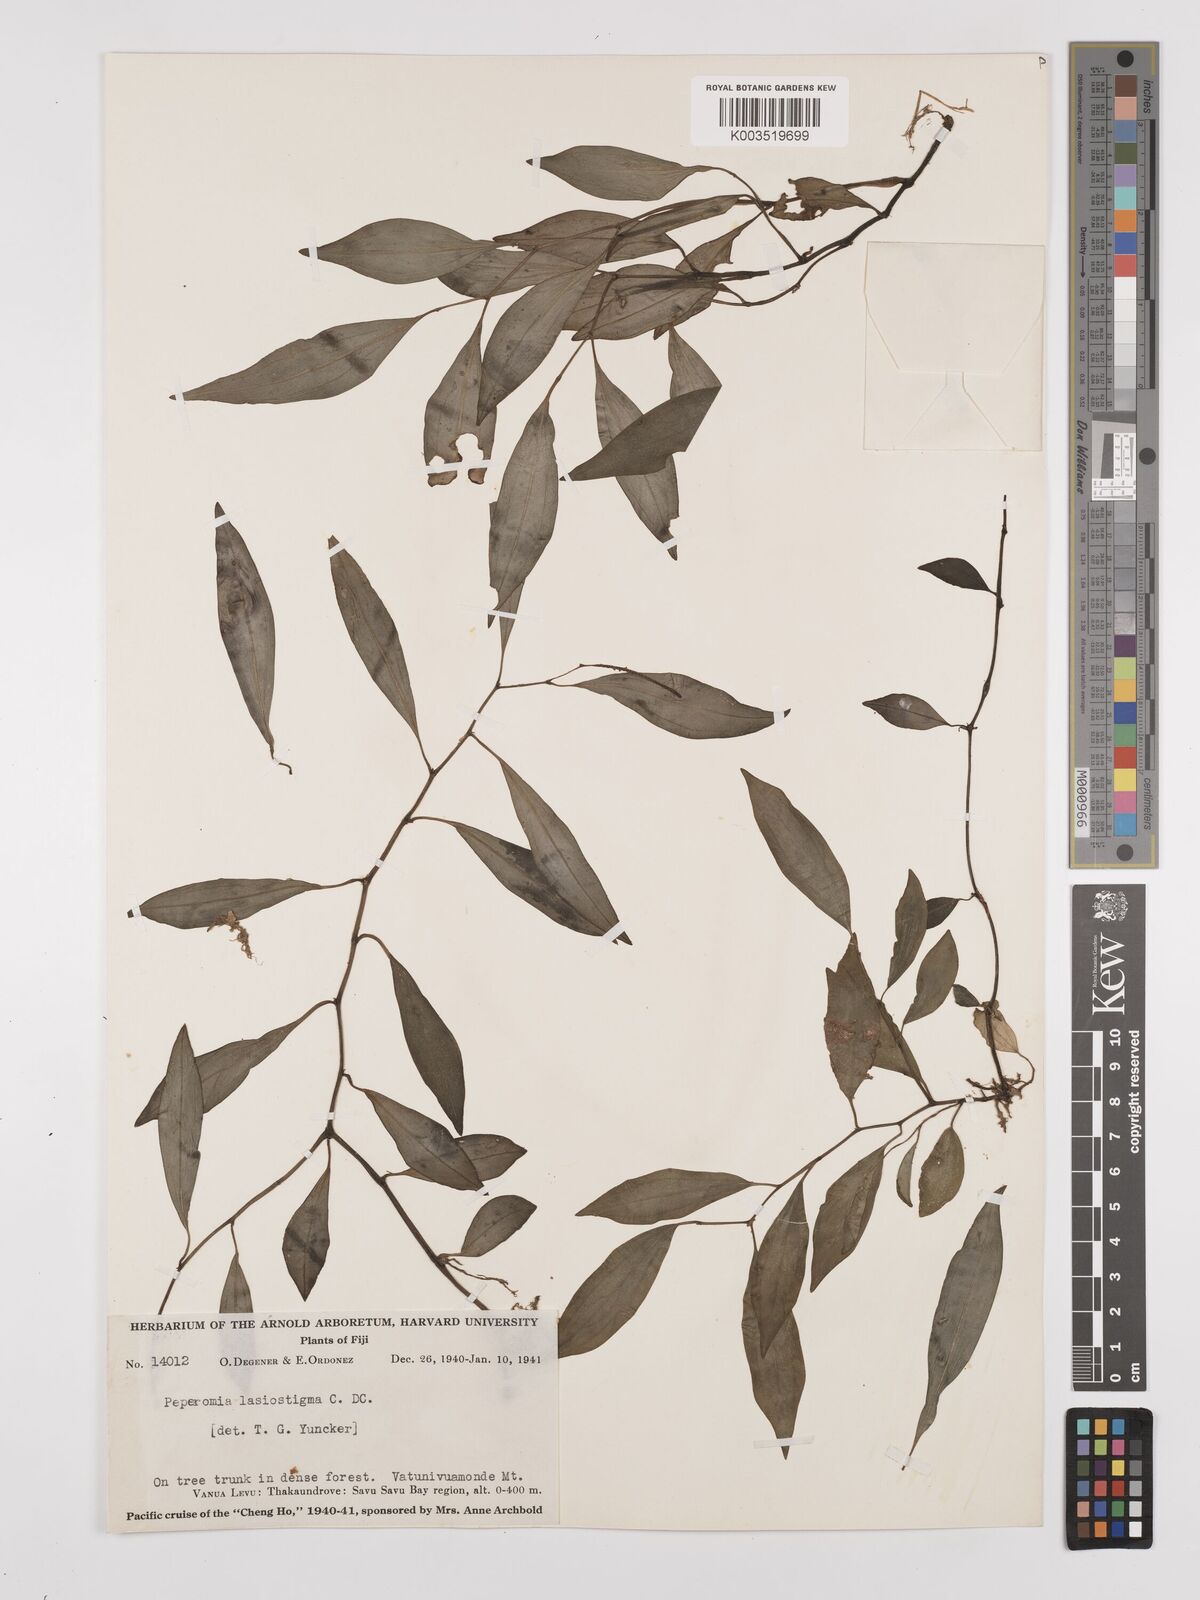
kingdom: Plantae
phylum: Tracheophyta
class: Magnoliopsida
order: Piperales
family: Piperaceae
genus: Peperomia
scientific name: Peperomia lasiostigma
